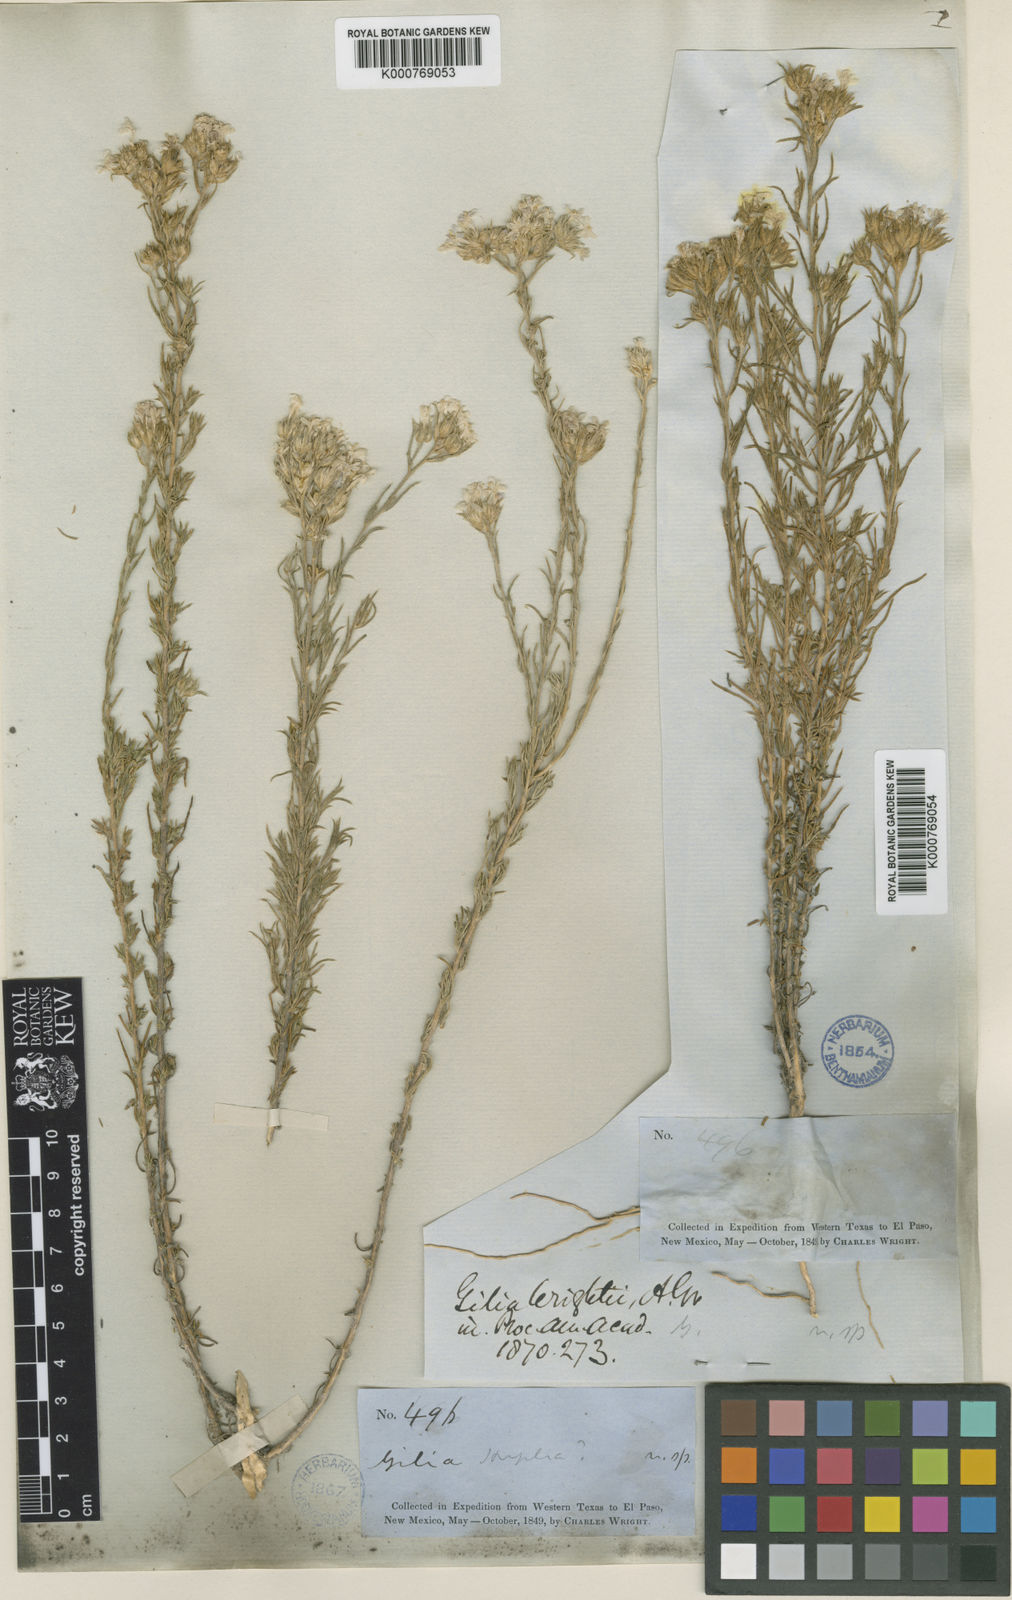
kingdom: Plantae
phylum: Tracheophyta
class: Magnoliopsida
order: Ericales
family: Polemoniaceae
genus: Ipomopsis
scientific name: Ipomopsis wrightii
